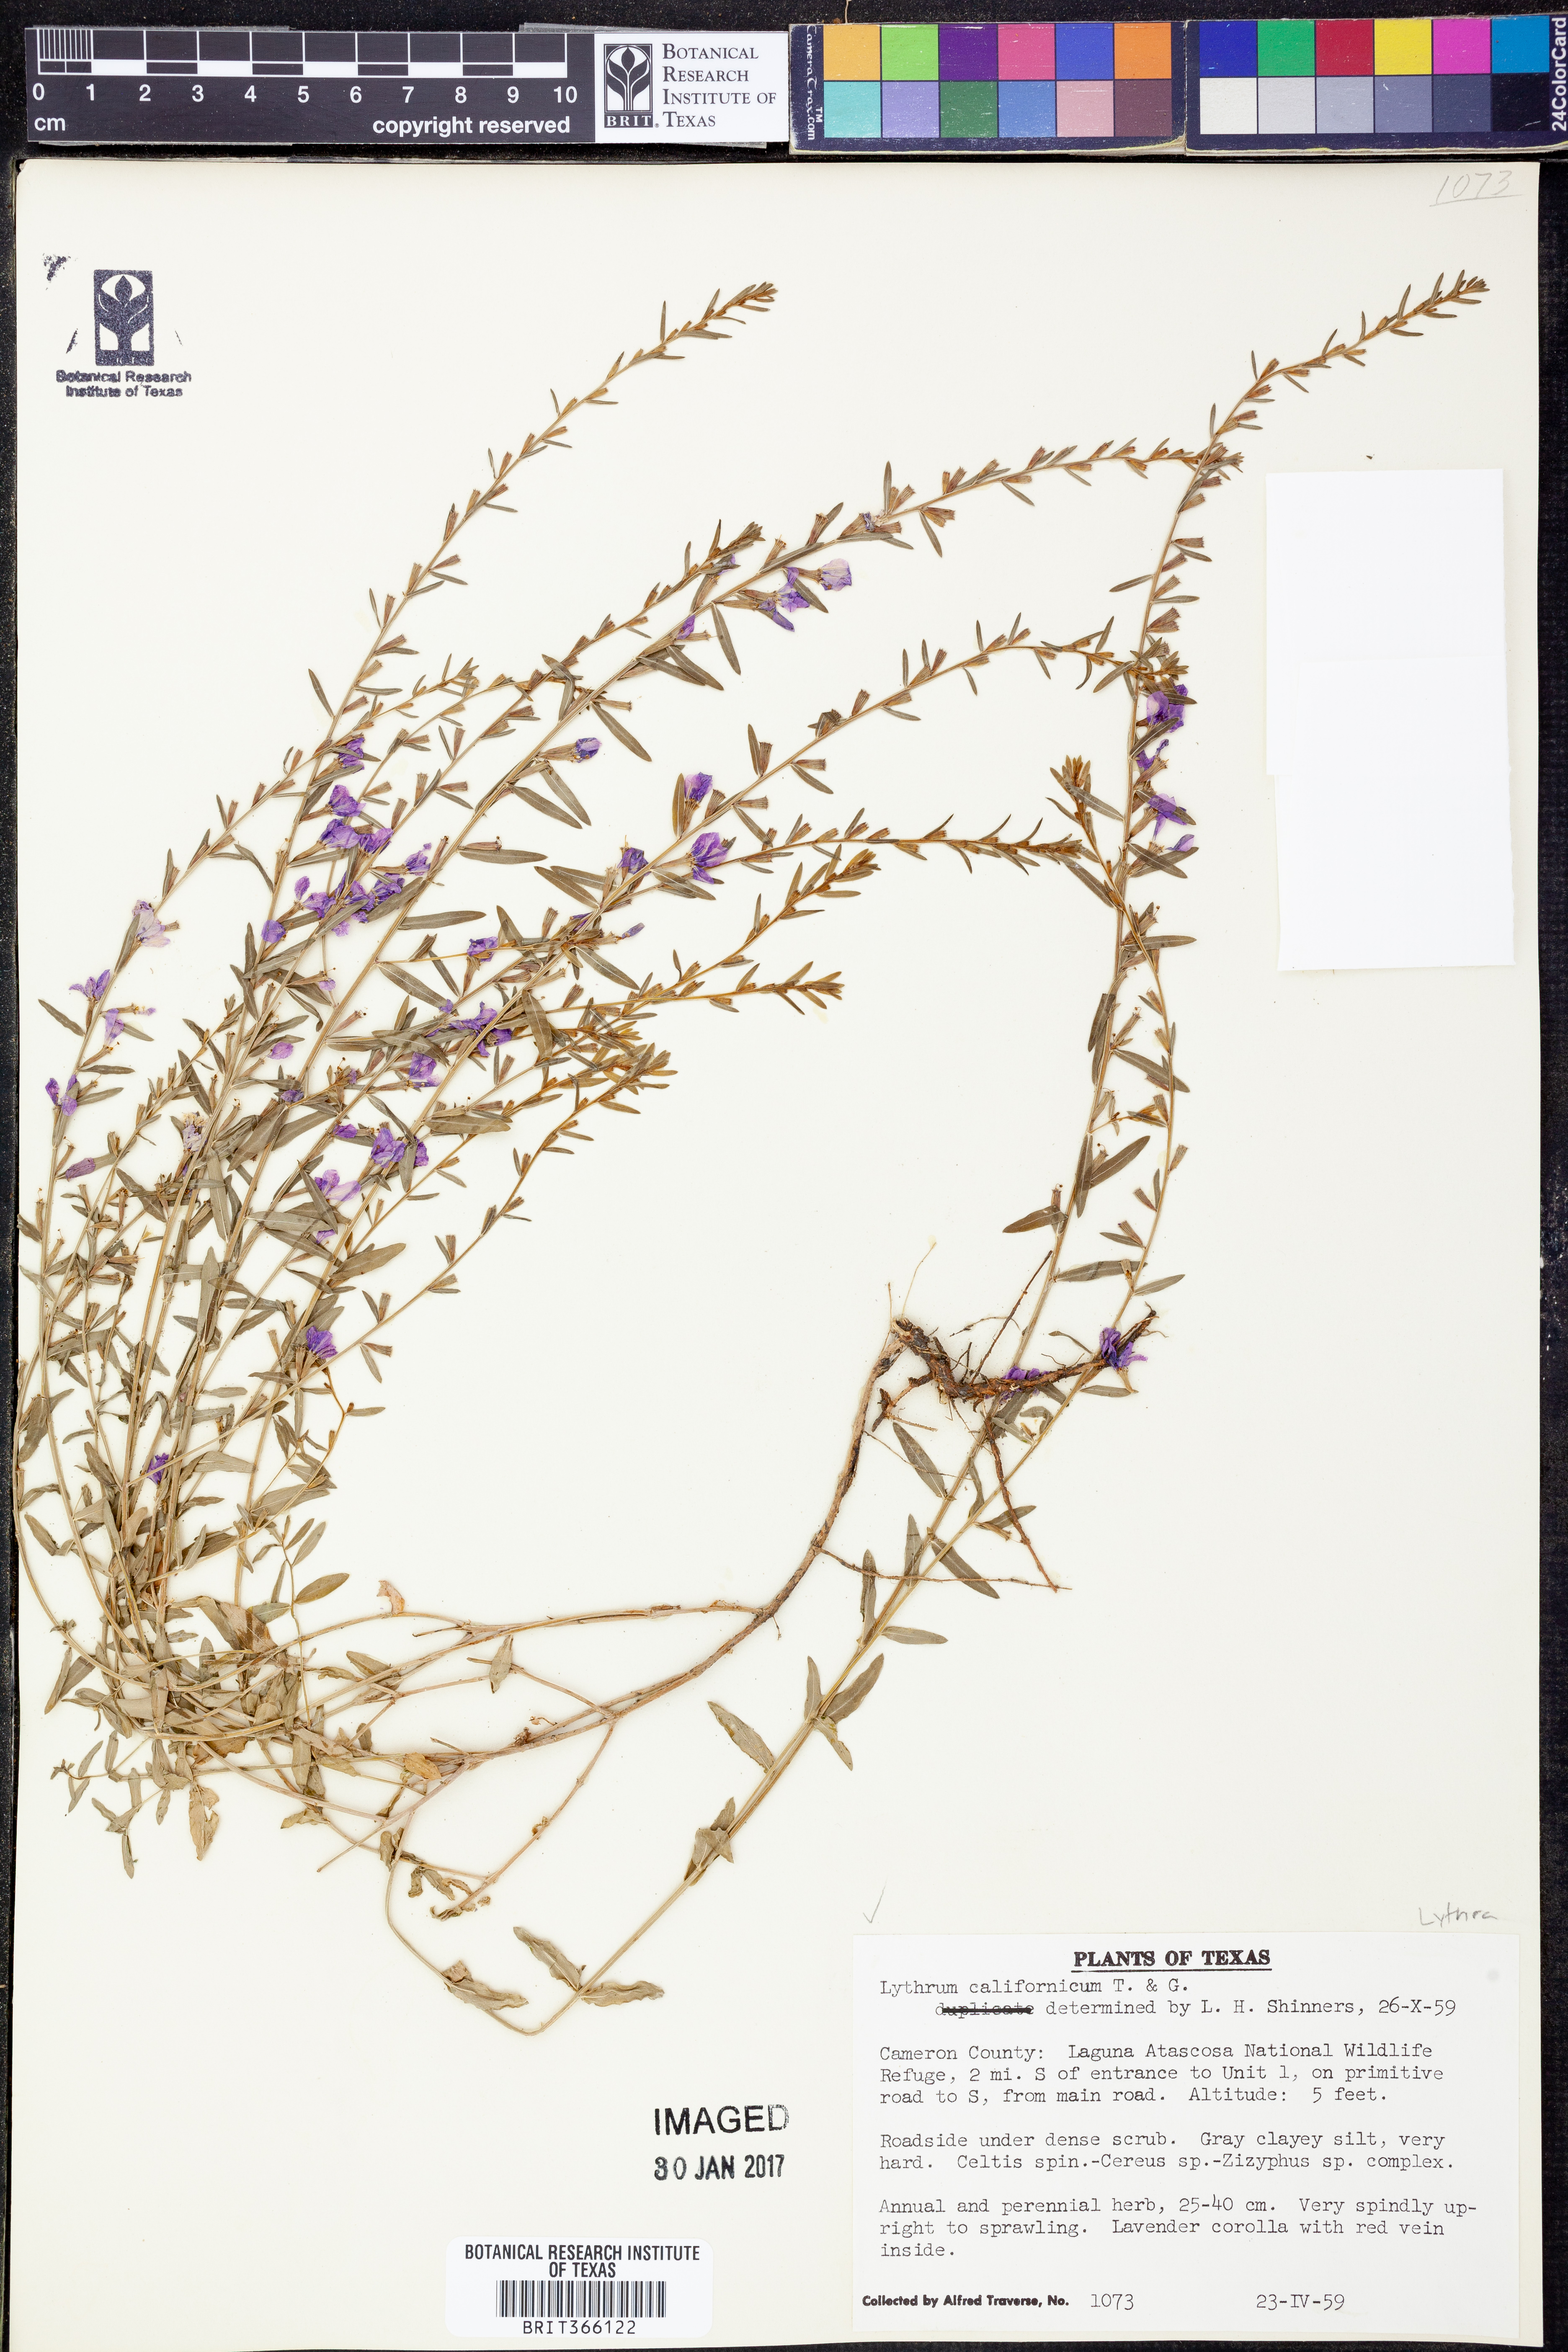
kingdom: Plantae
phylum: Tracheophyta
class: Magnoliopsida
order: Myrtales
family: Lythraceae
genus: Lythrum
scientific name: Lythrum californicum
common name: California loosestrife
